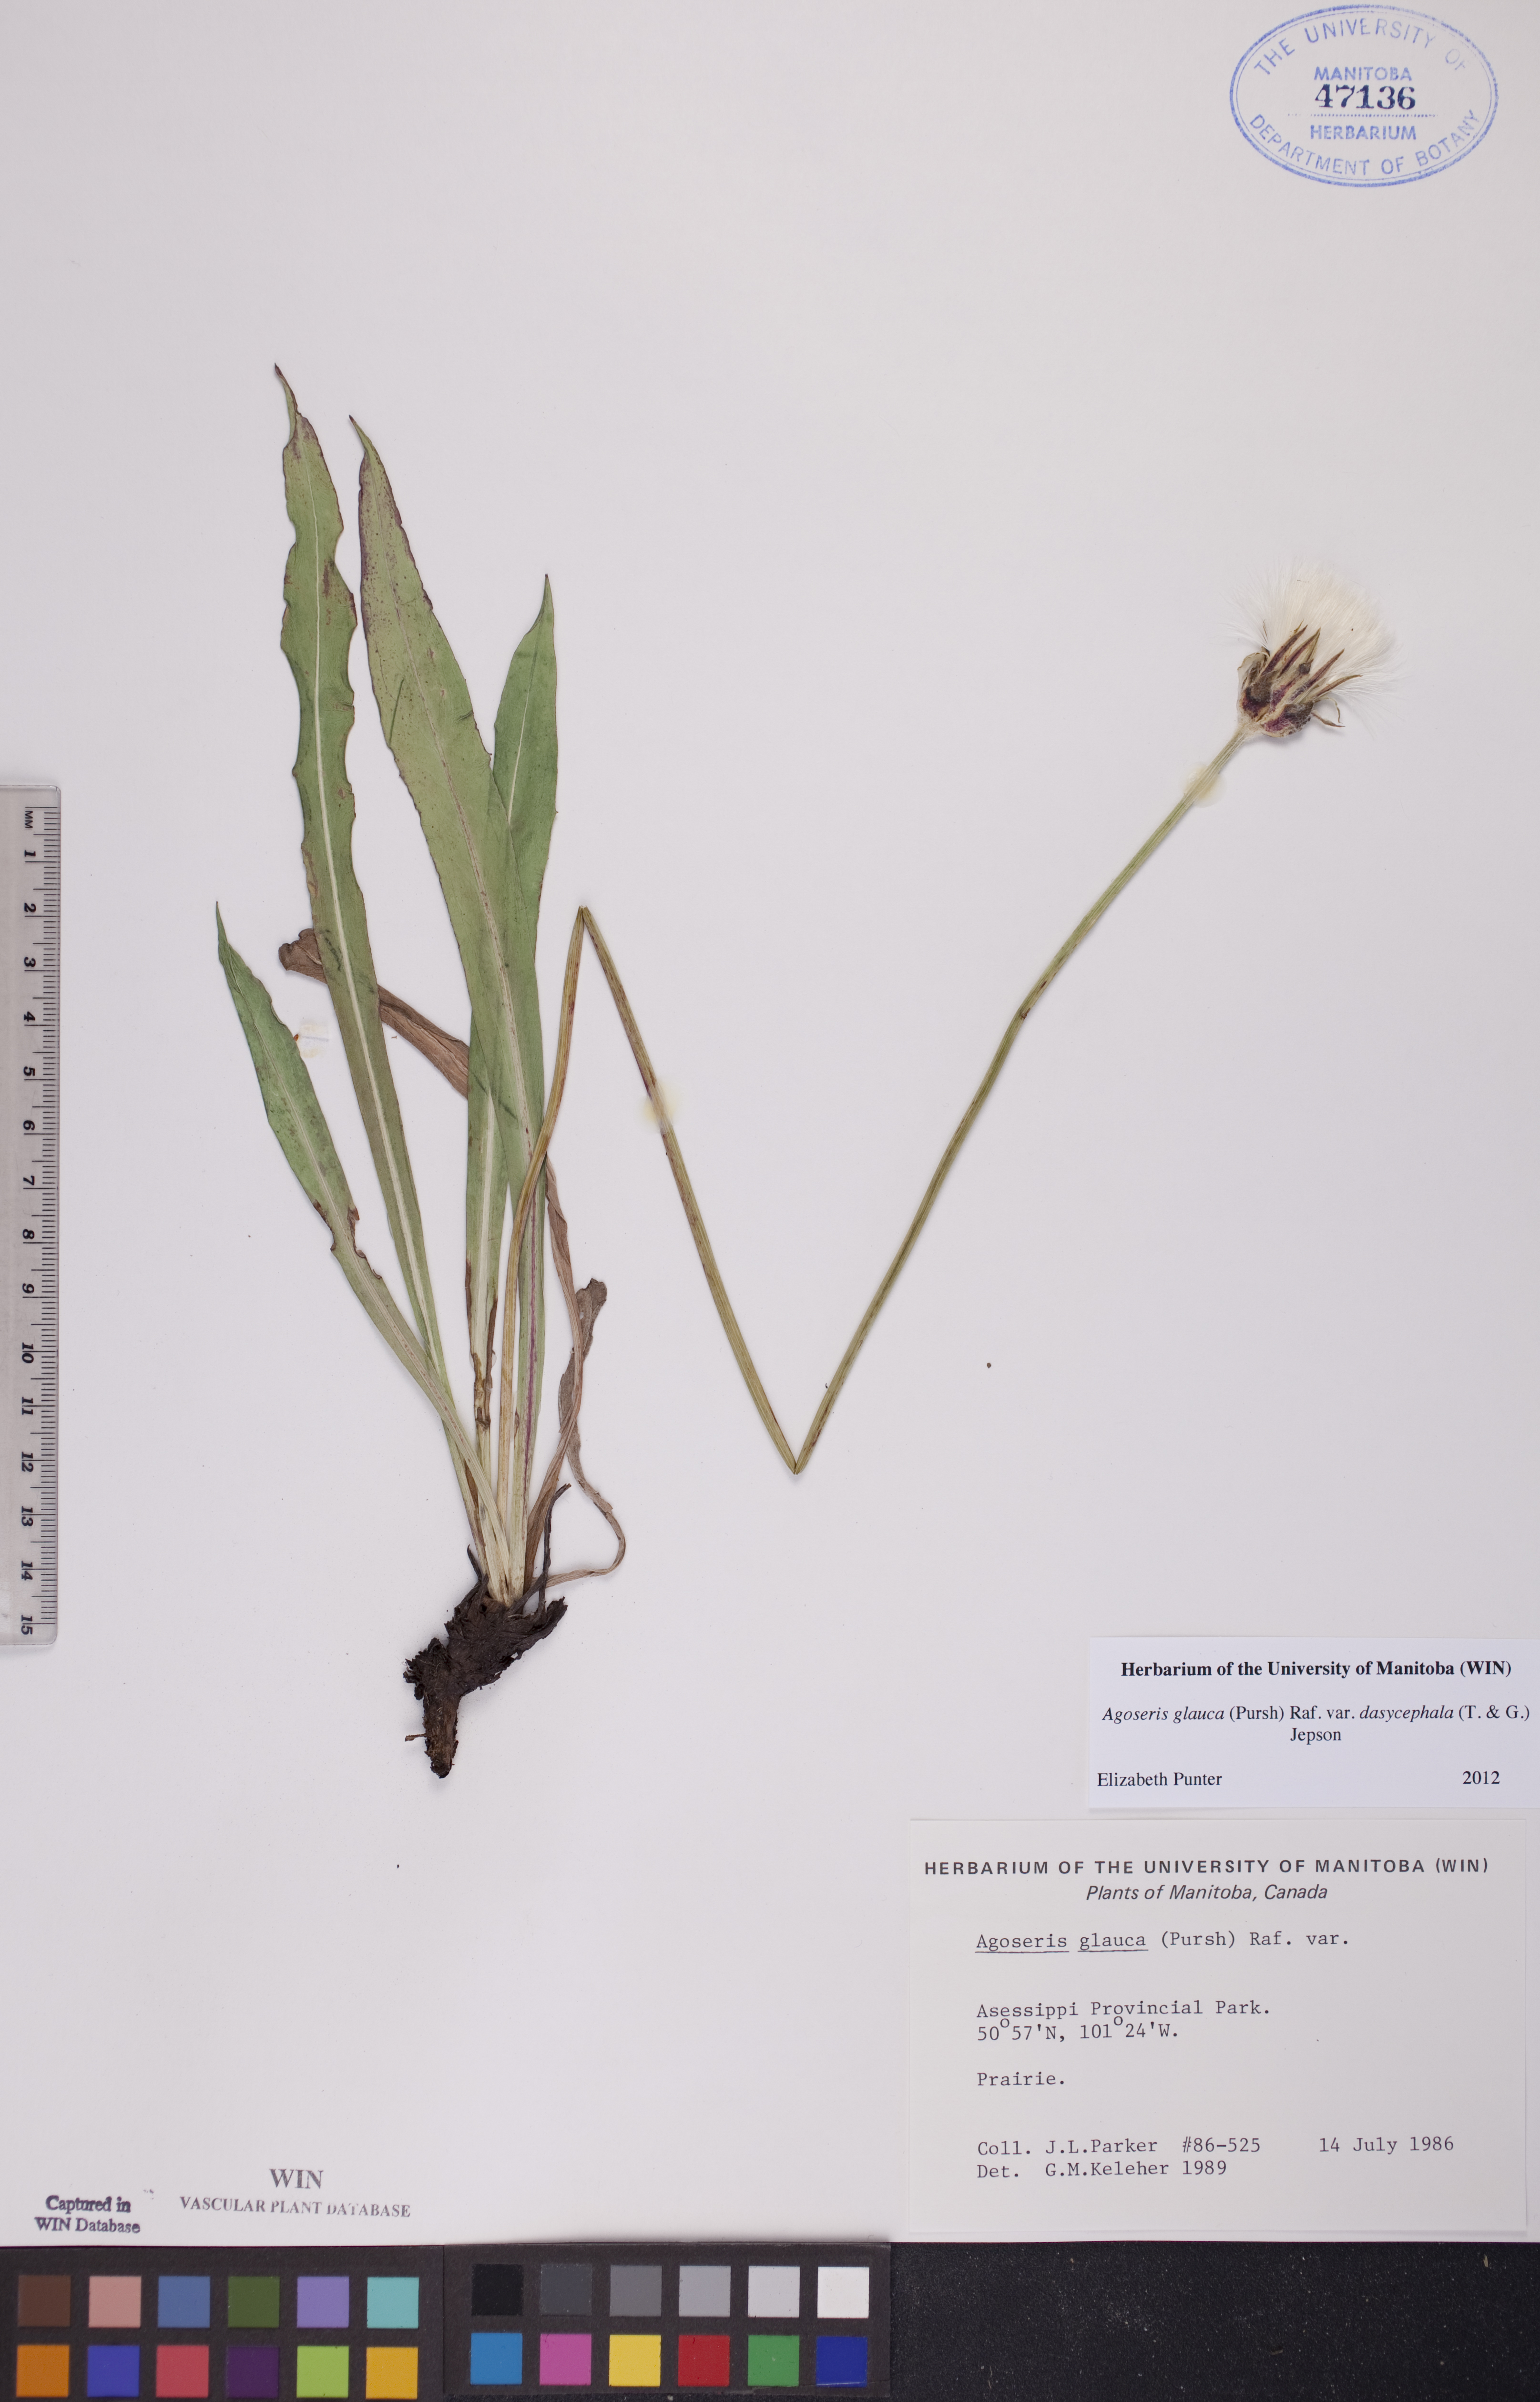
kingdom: Plantae
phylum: Tracheophyta
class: Magnoliopsida
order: Asterales
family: Asteraceae
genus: Agoseris
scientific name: Agoseris glauca
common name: Prairie agoseris
